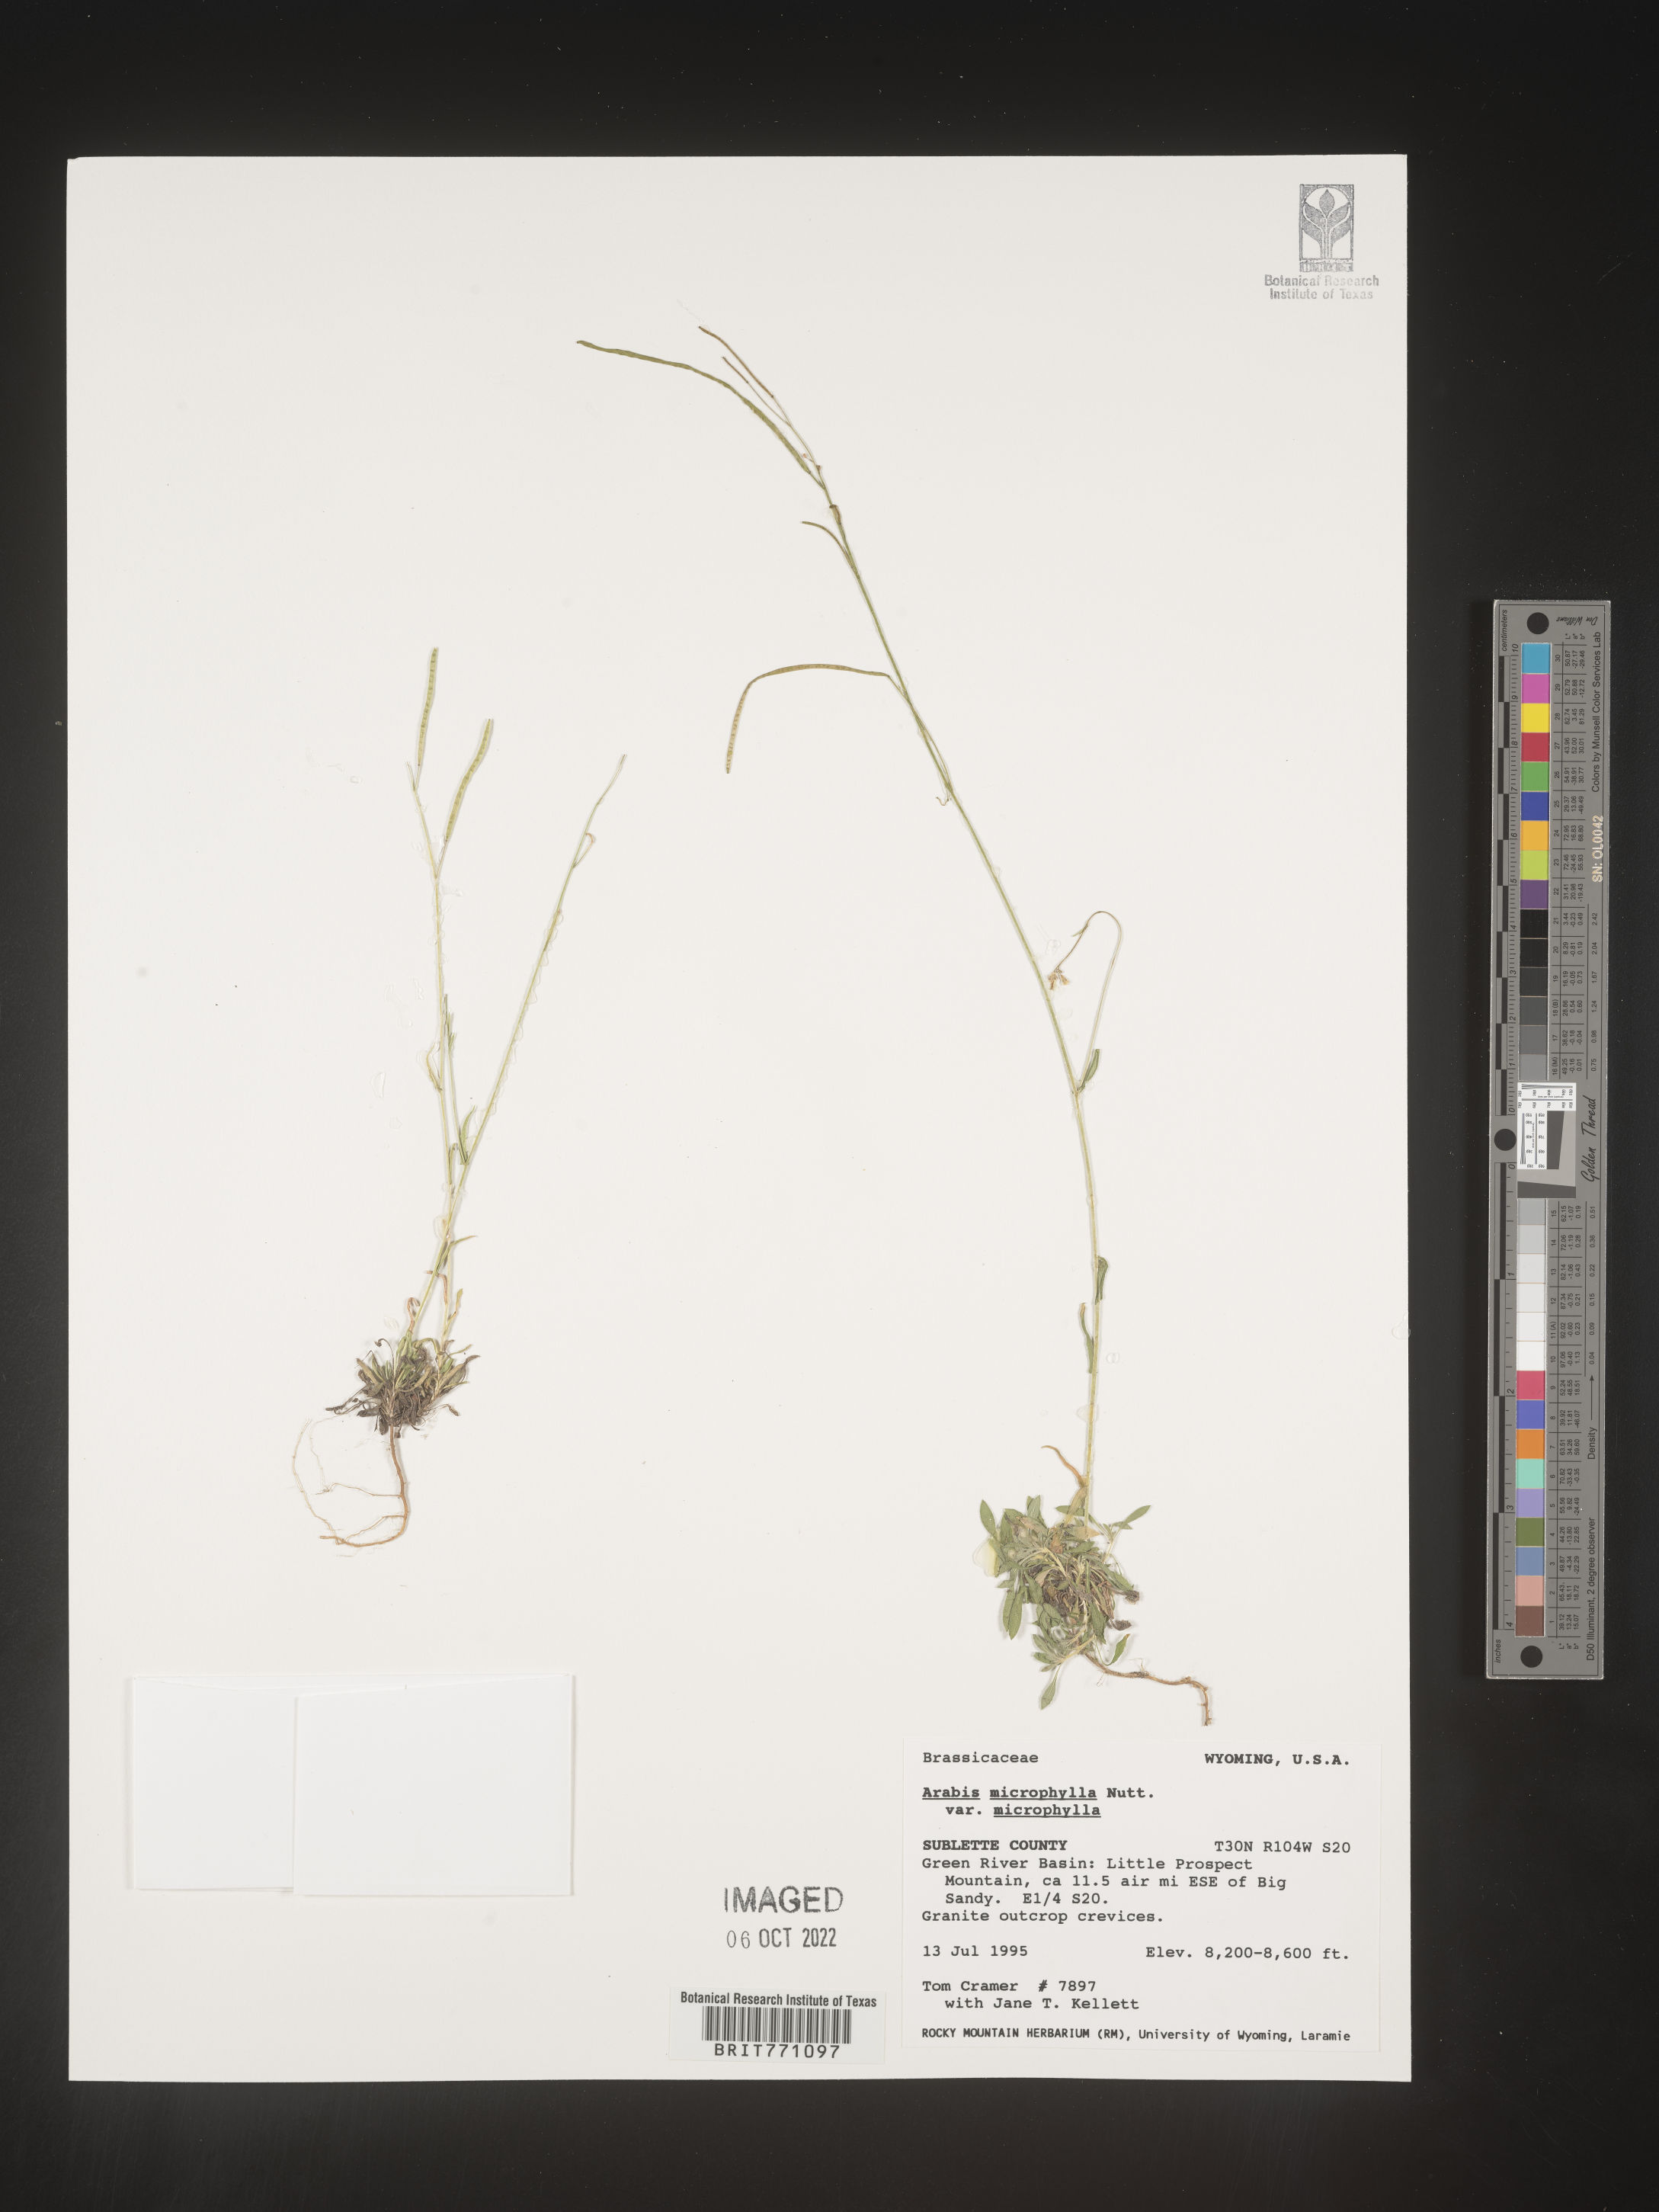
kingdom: Plantae
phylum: Tracheophyta
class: Magnoliopsida
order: Brassicales
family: Brassicaceae
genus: Boechera
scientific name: Boechera holboellii
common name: Holboell's rockcress
